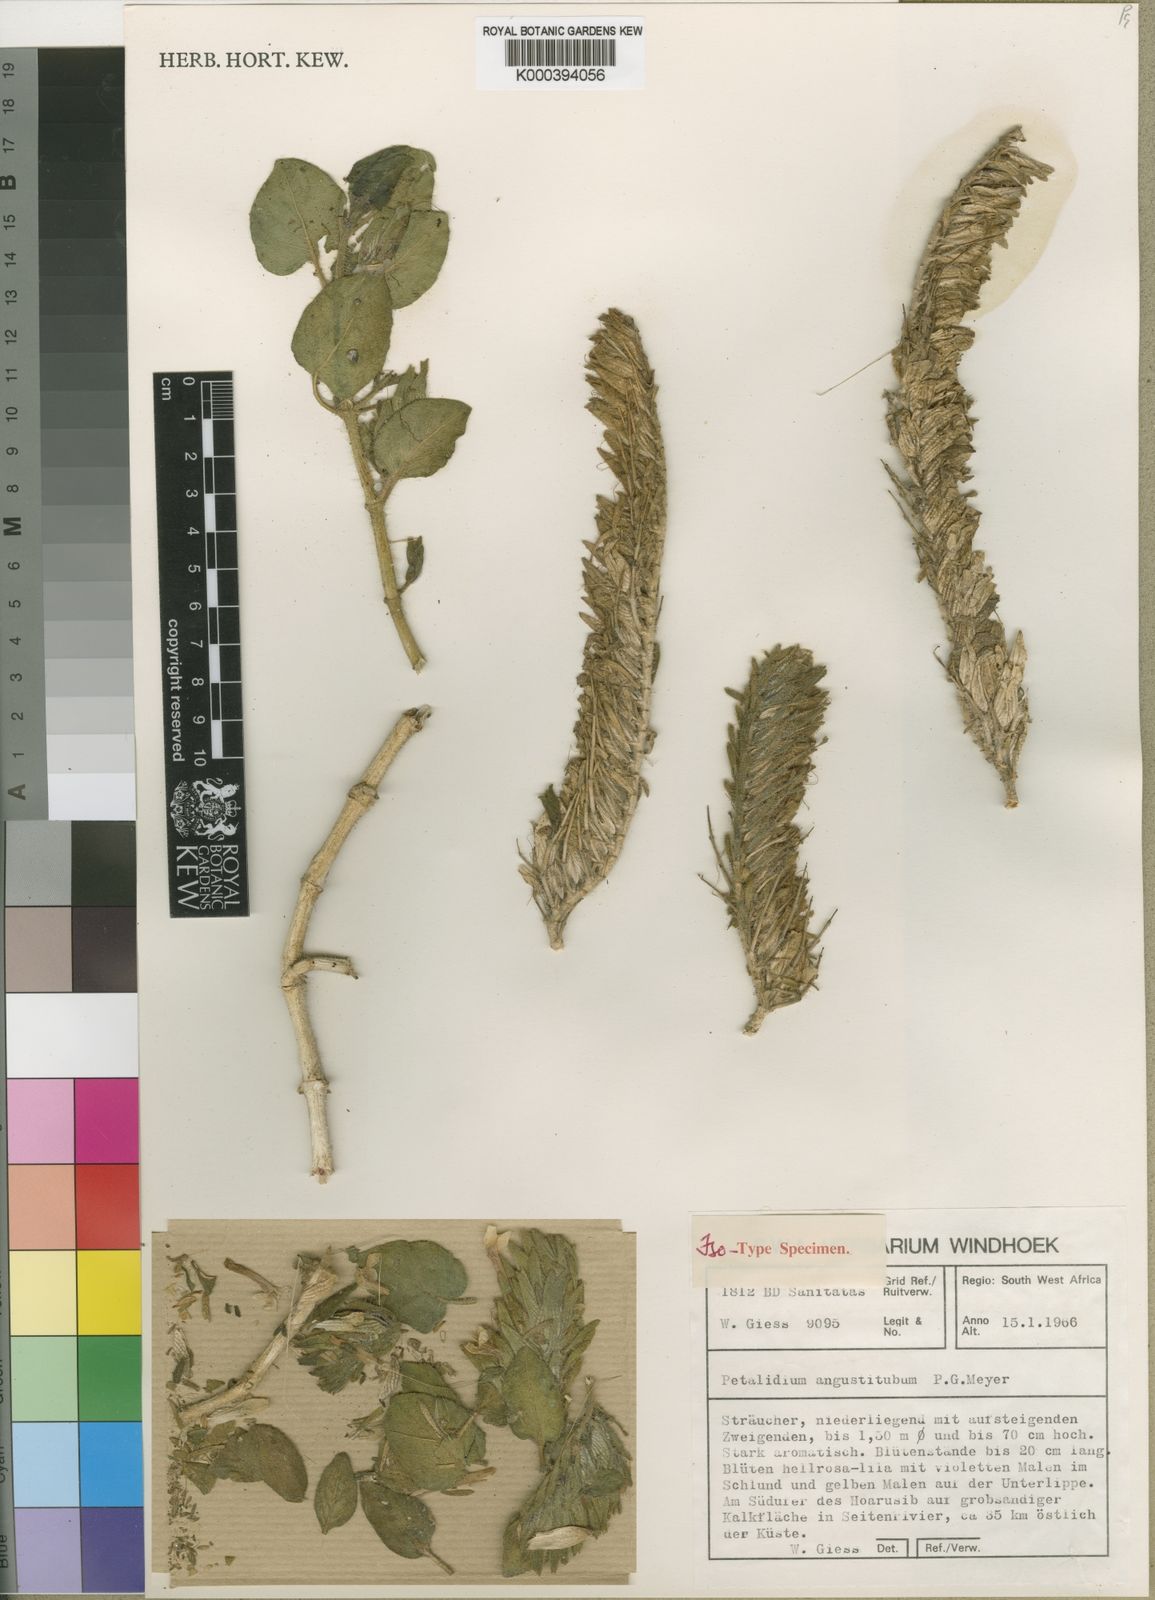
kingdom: Plantae
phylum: Tracheophyta
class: Magnoliopsida
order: Lamiales
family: Acanthaceae
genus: Petalidium
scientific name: Petalidium angustitubum
